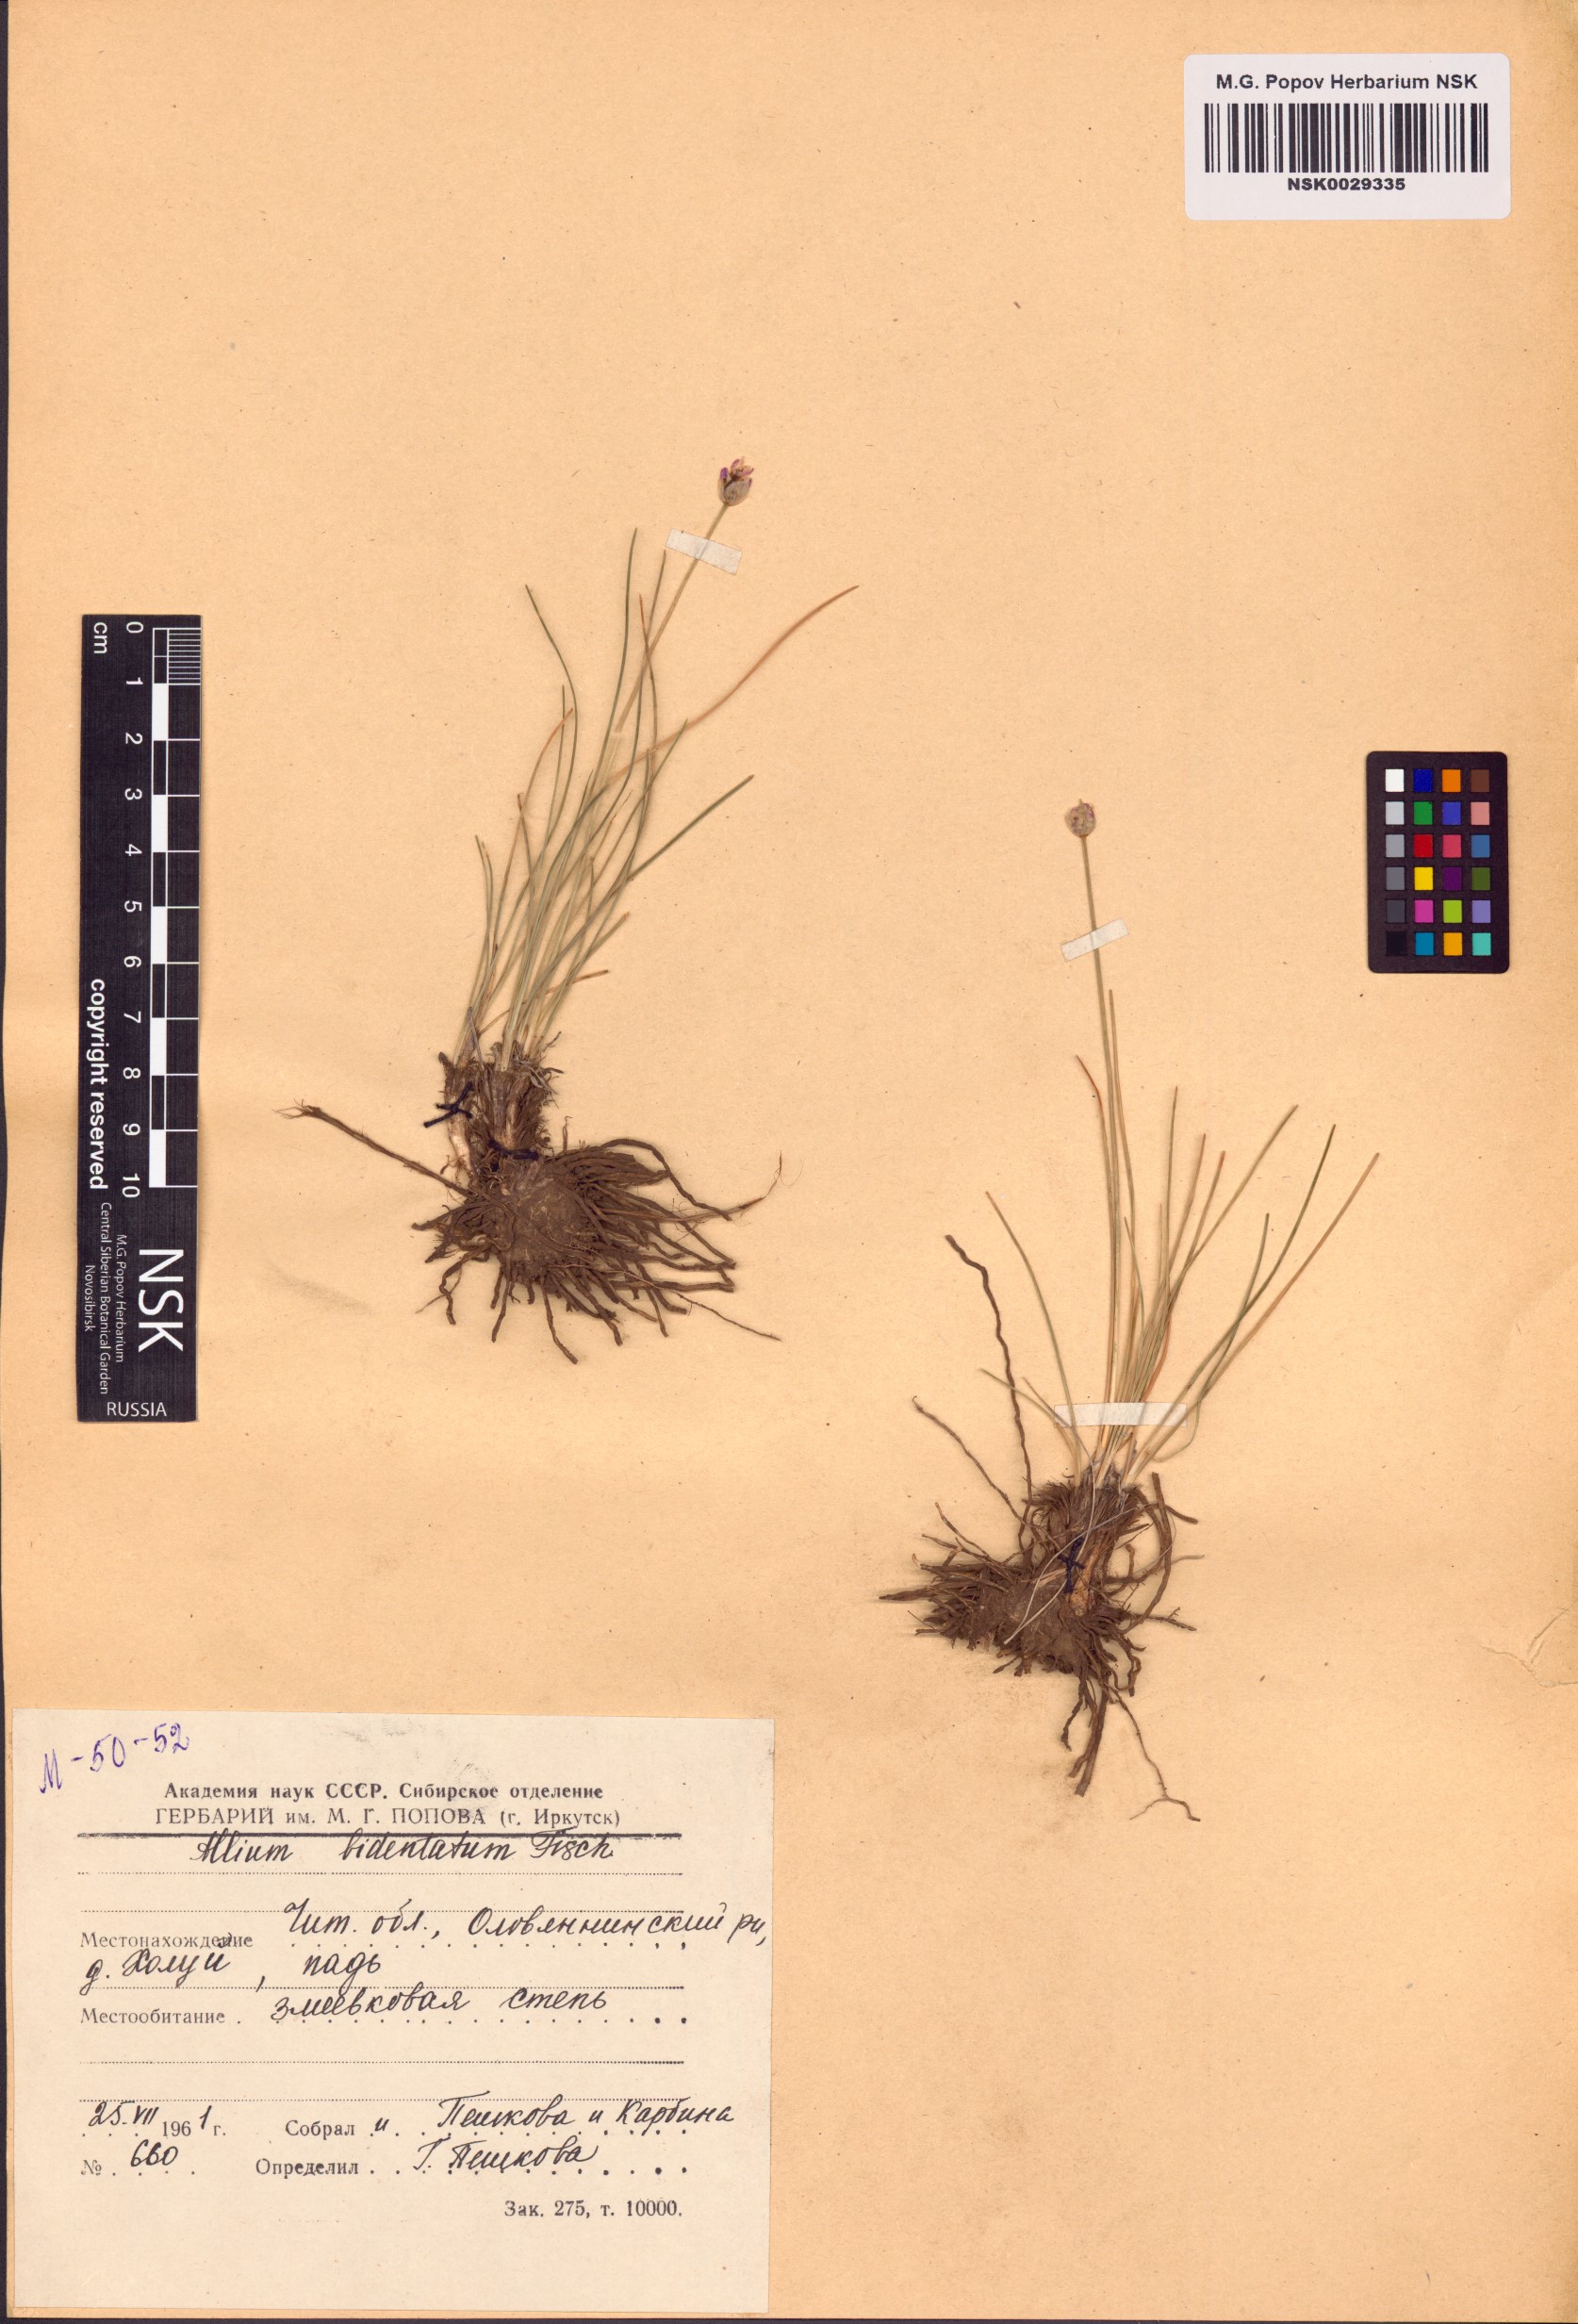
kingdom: Plantae
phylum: Tracheophyta
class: Liliopsida
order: Asparagales
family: Amaryllidaceae
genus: Allium
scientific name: Allium bidentatum
